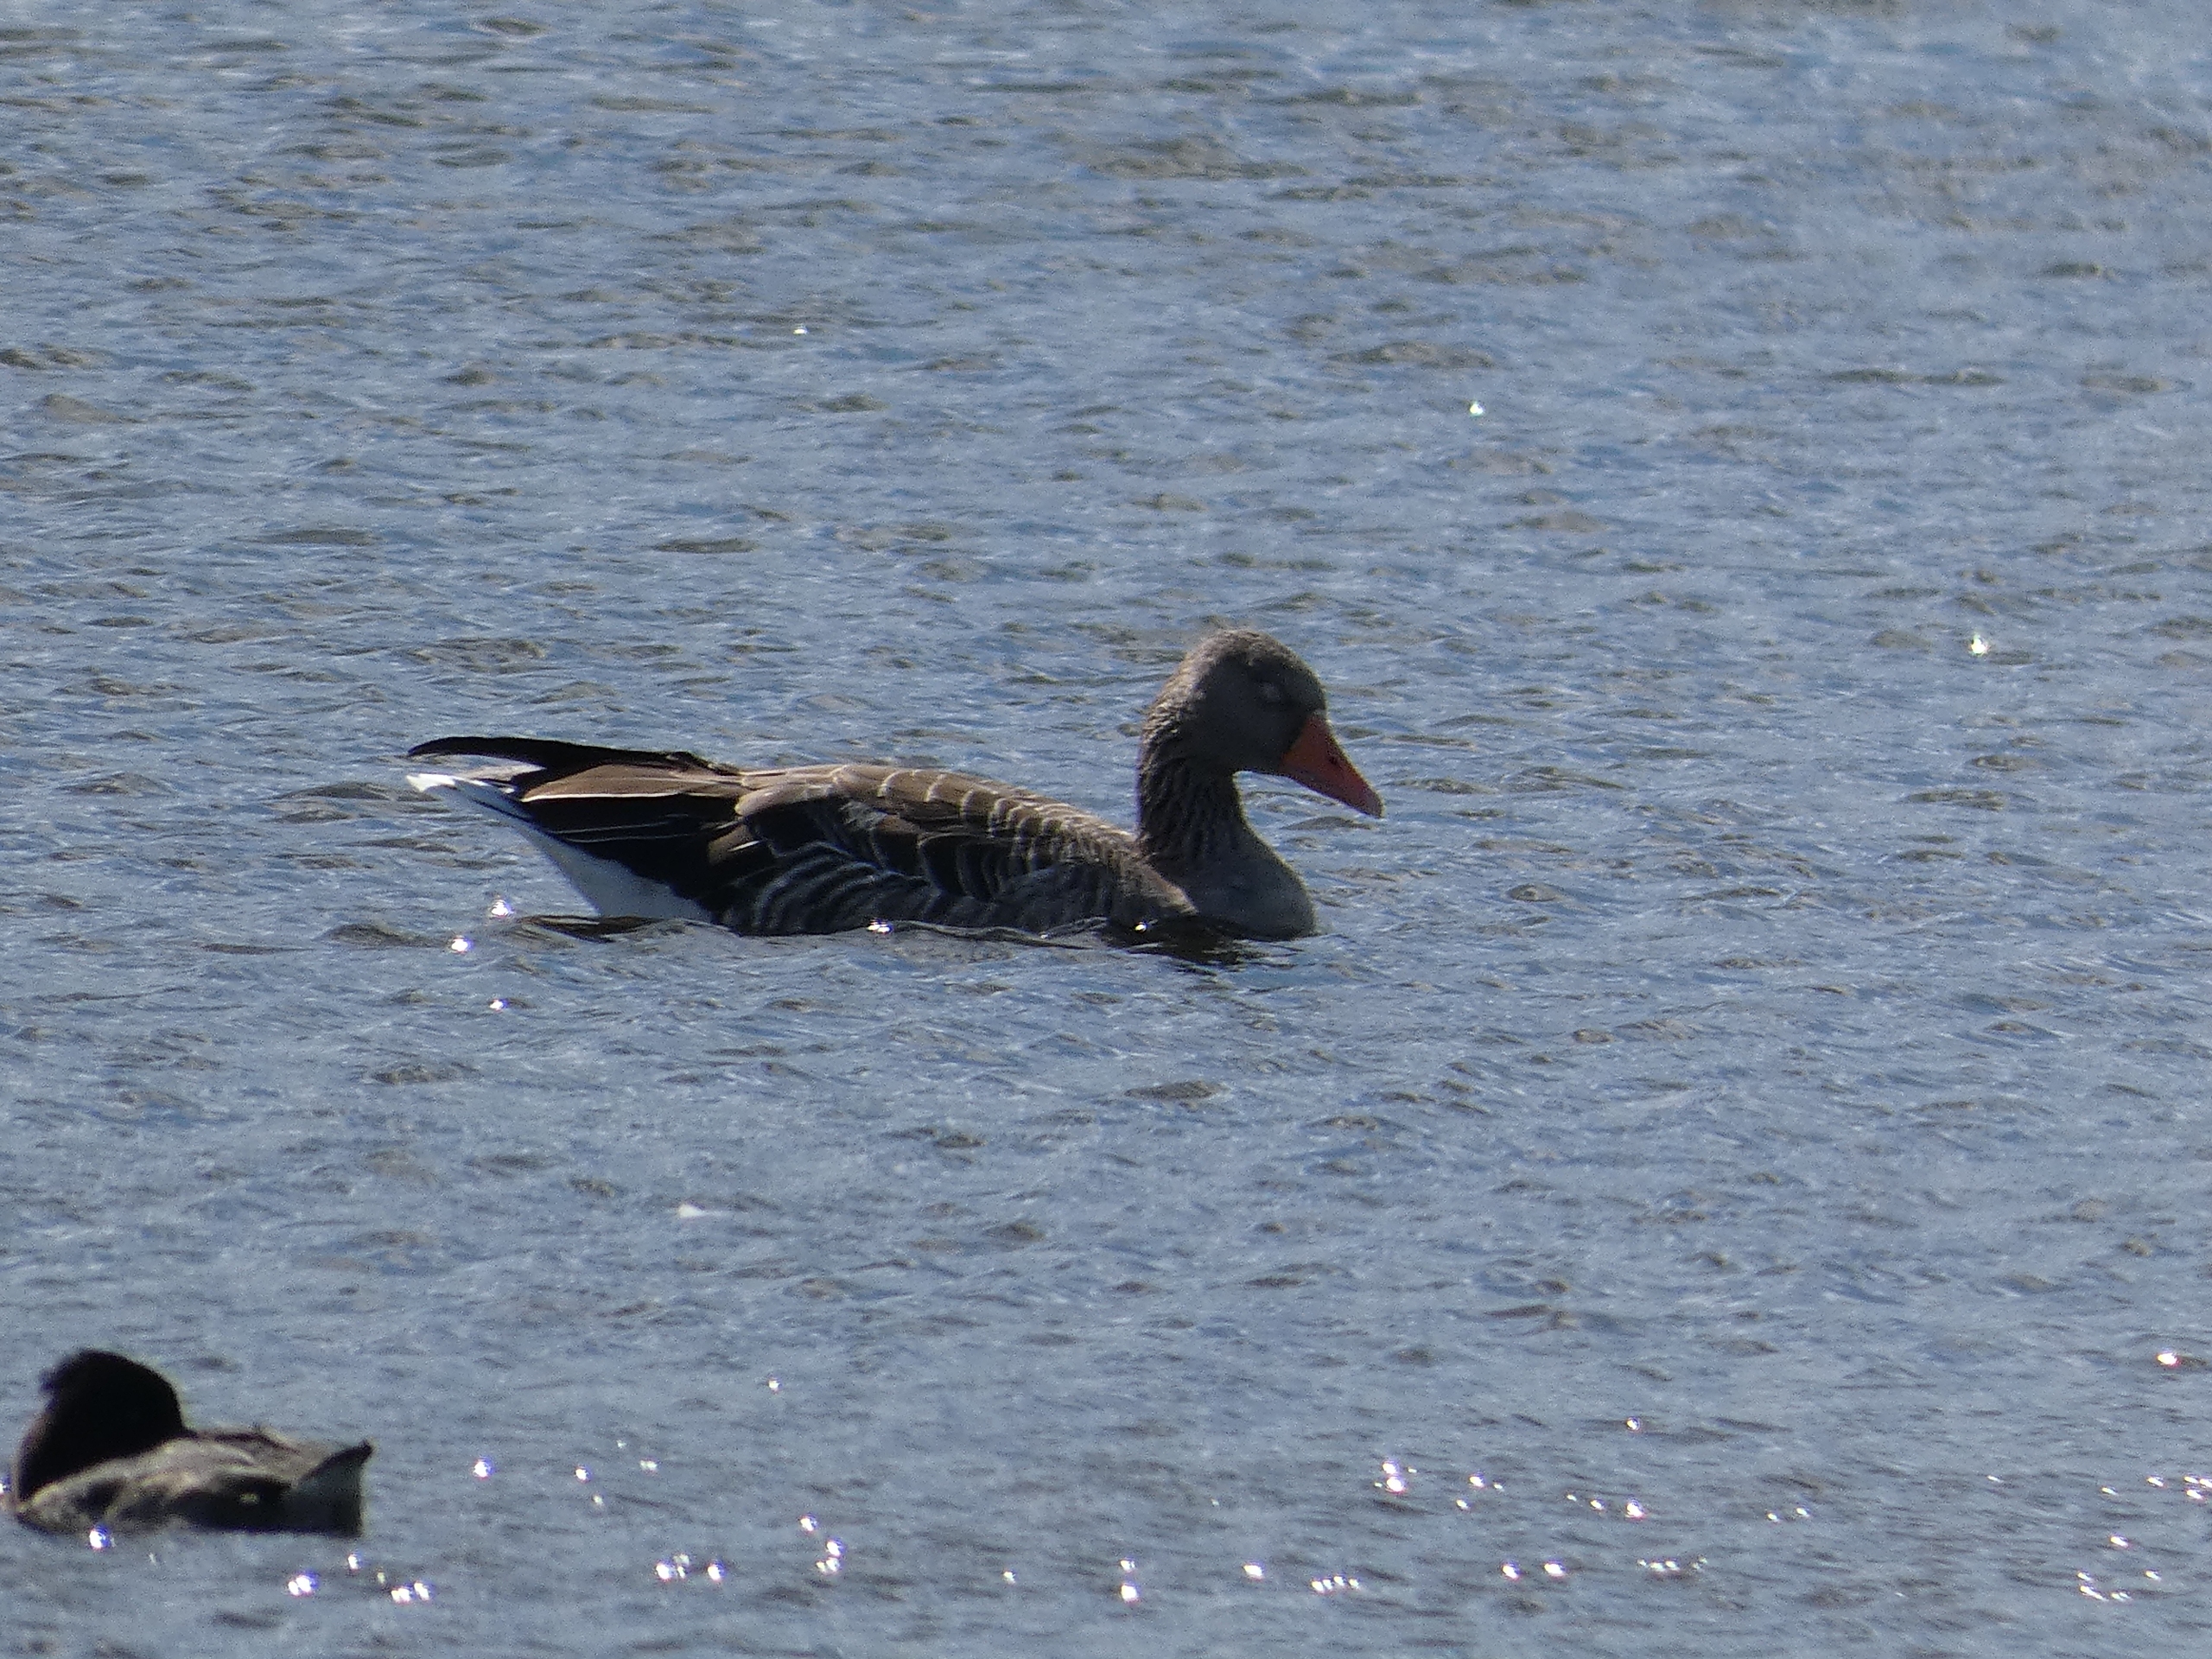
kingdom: Animalia
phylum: Chordata
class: Aves
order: Anseriformes
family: Anatidae
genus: Anser
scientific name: Anser anser
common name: Grågås
